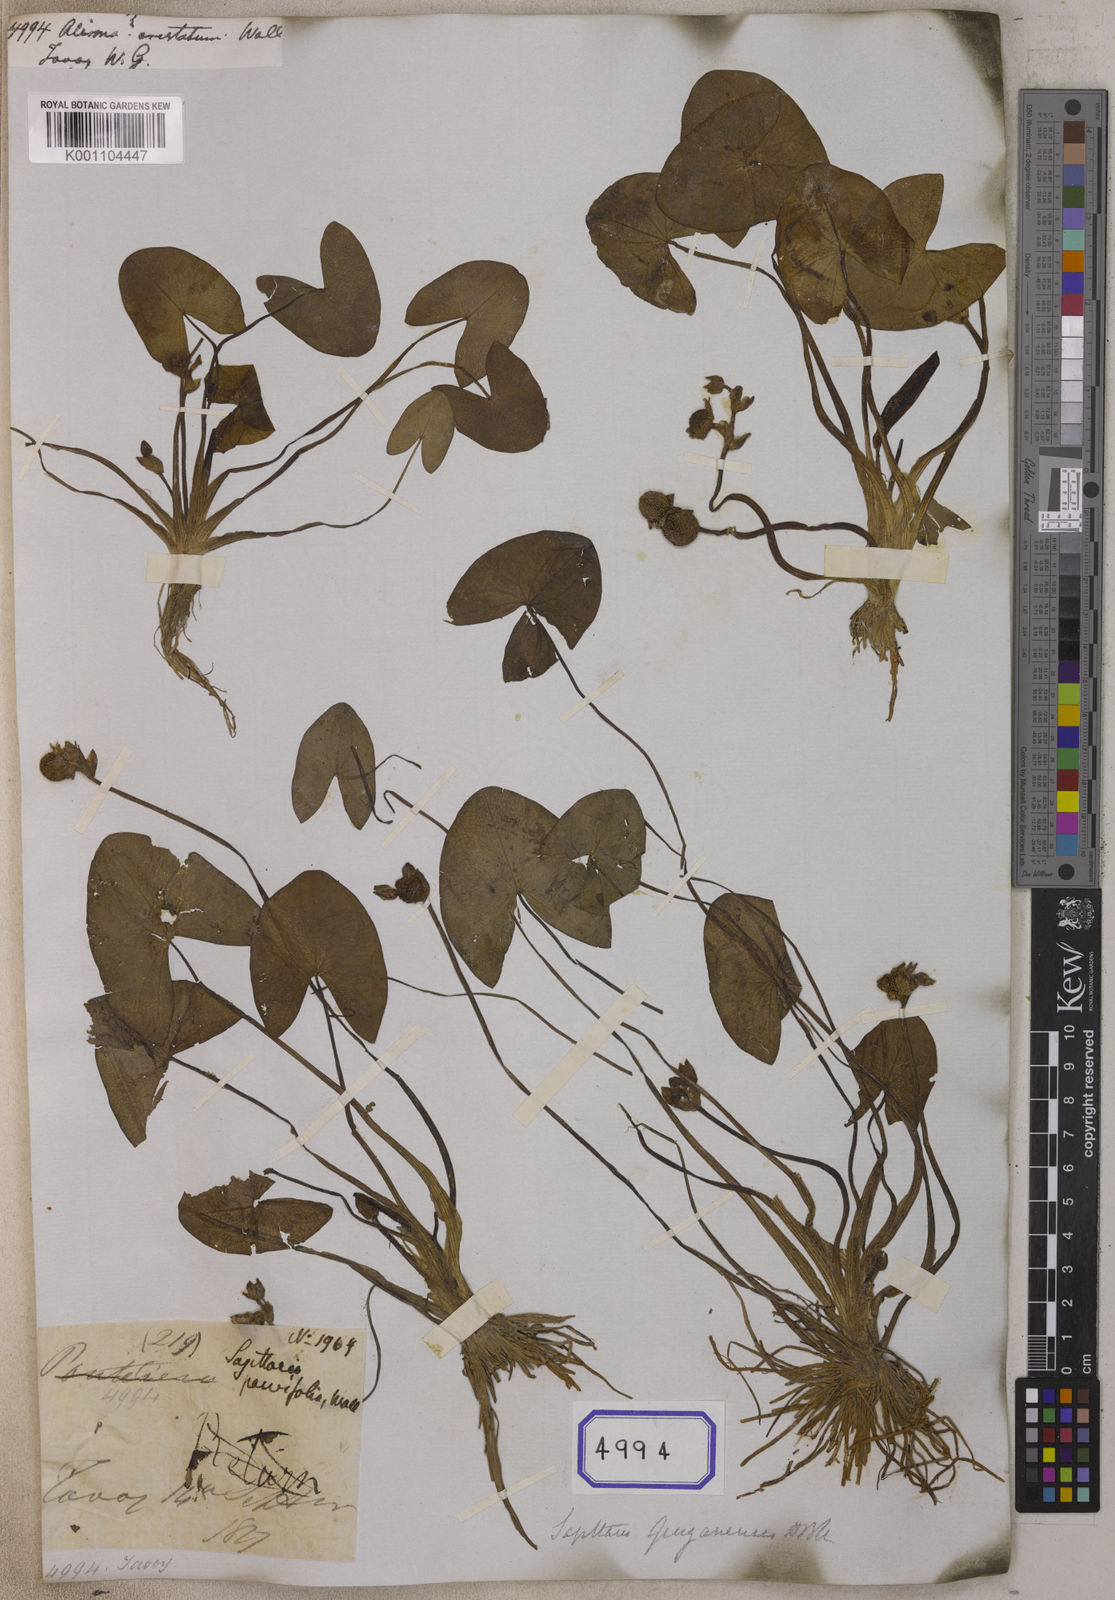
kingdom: Plantae
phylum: Tracheophyta
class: Liliopsida
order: Alismatales
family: Alismataceae
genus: Sagittaria
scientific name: Sagittaria guayanensis
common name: Guyanese arrowhead
